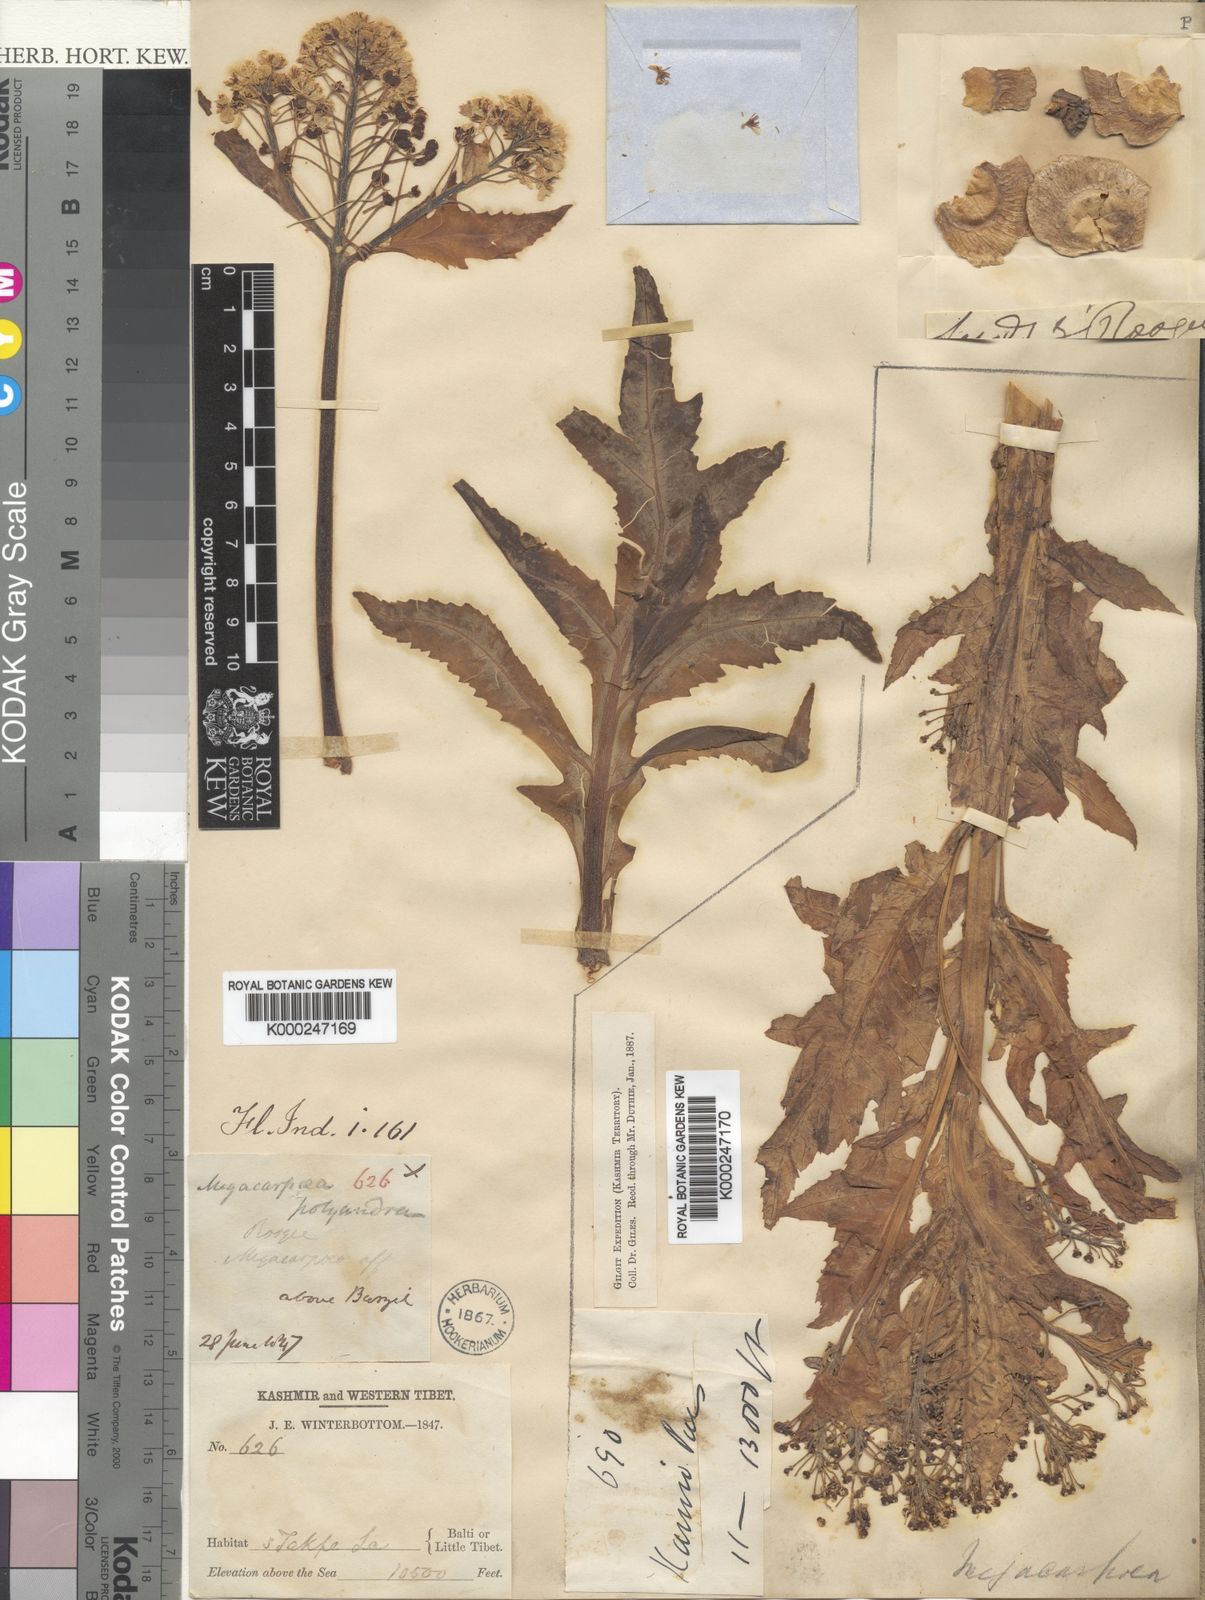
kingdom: Plantae
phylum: Tracheophyta
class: Magnoliopsida
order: Brassicales
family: Brassicaceae
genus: Megacarpaea
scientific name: Megacarpaea polyandra
